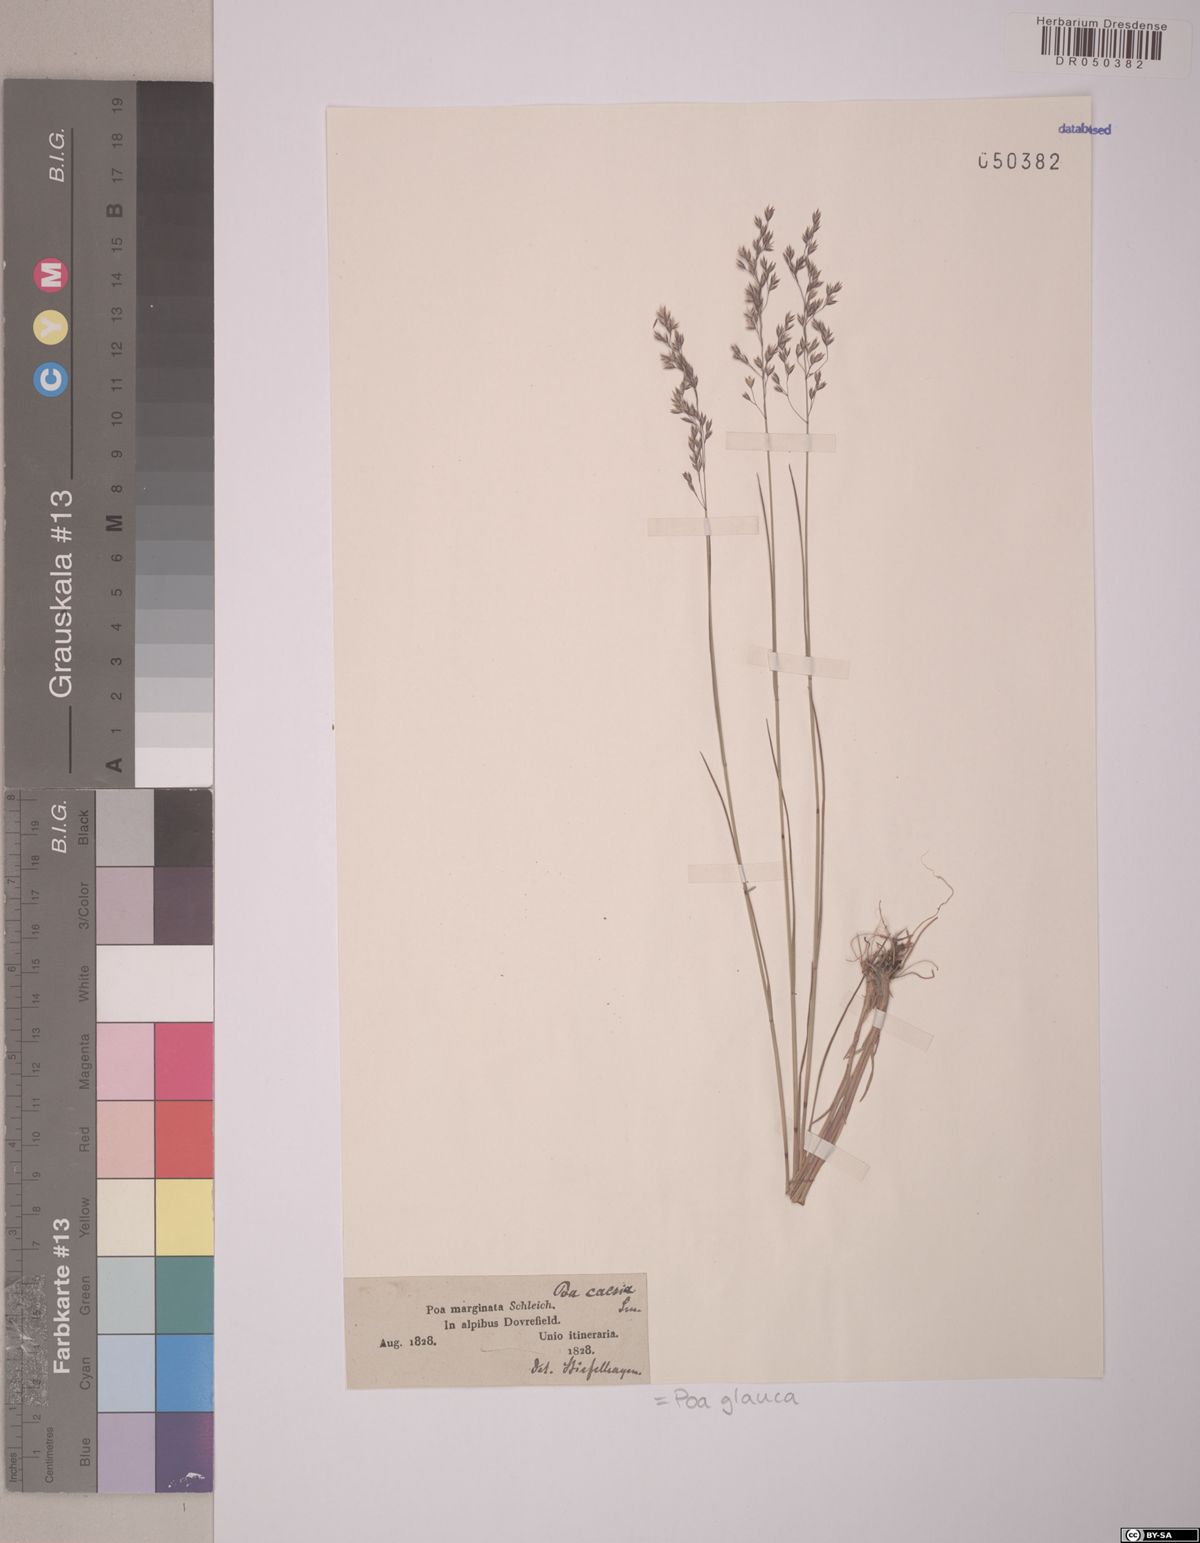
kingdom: Plantae
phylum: Tracheophyta
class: Liliopsida
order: Poales
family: Poaceae
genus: Poa
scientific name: Poa glauca
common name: Glaucous bluegrass
